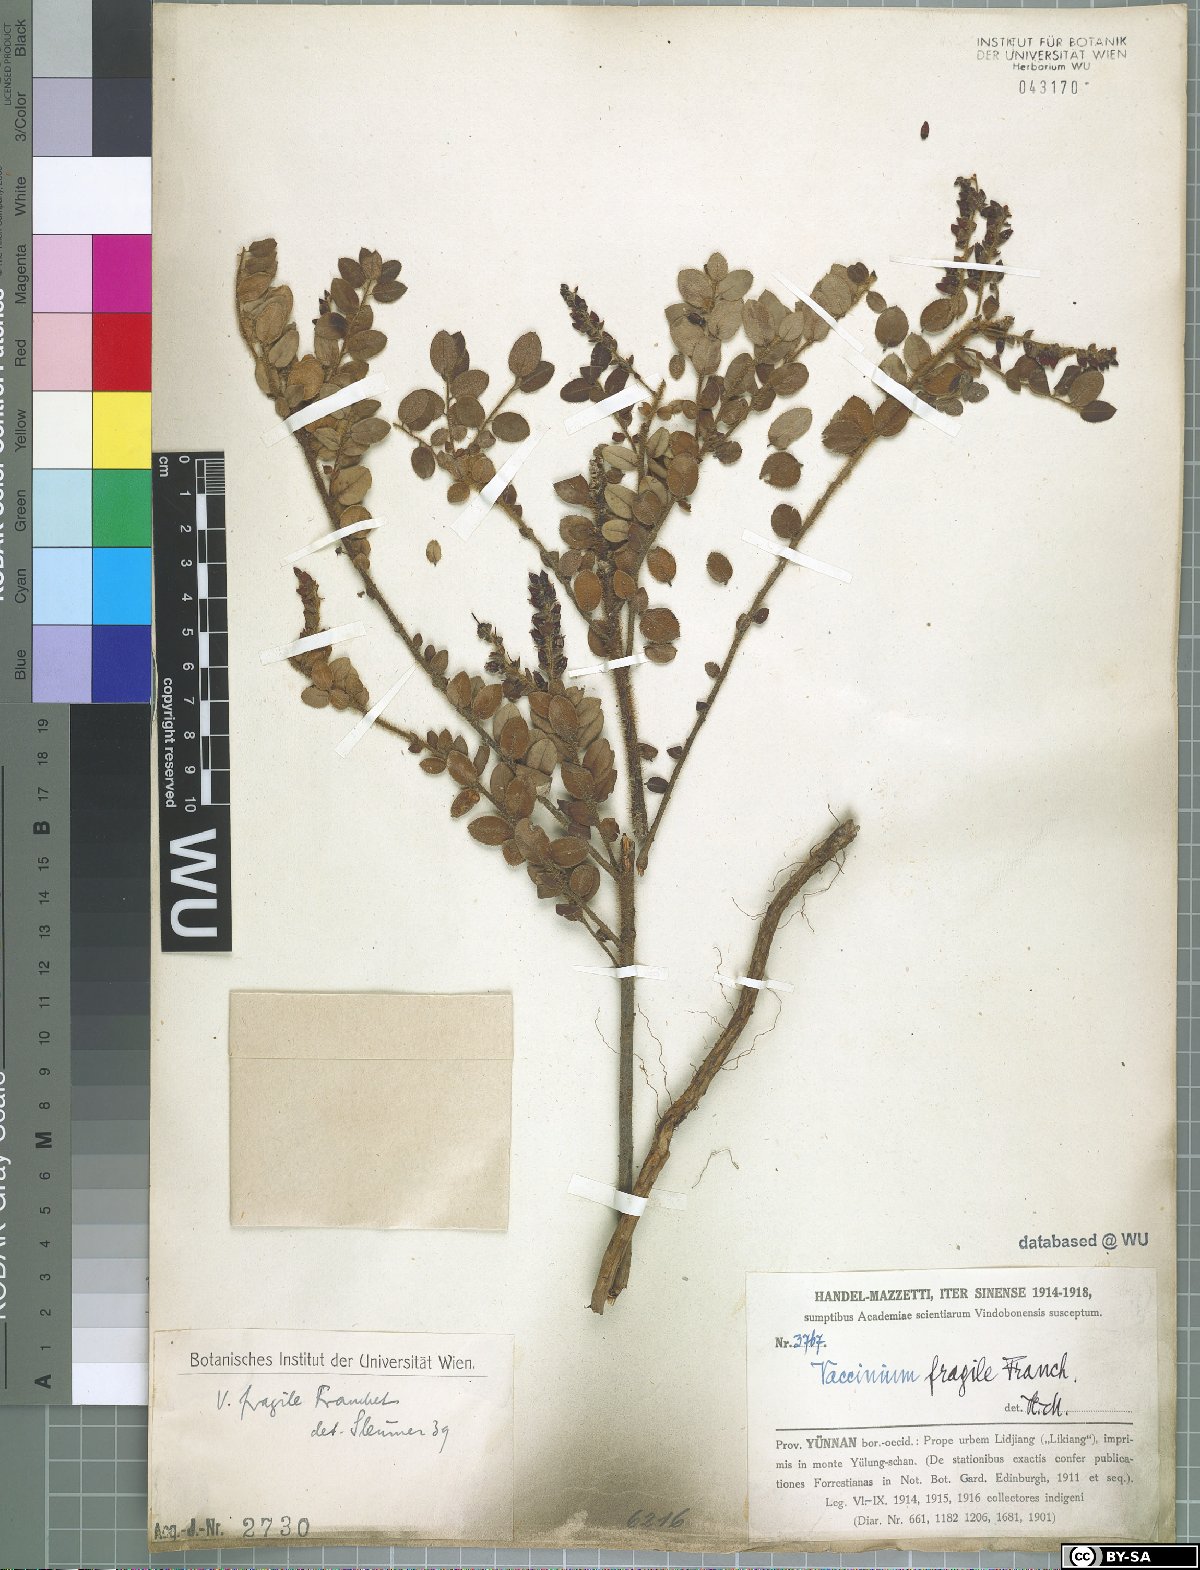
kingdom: Plantae
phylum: Tracheophyta
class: Magnoliopsida
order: Ericales
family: Ericaceae
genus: Vaccinium
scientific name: Vaccinium fragile
